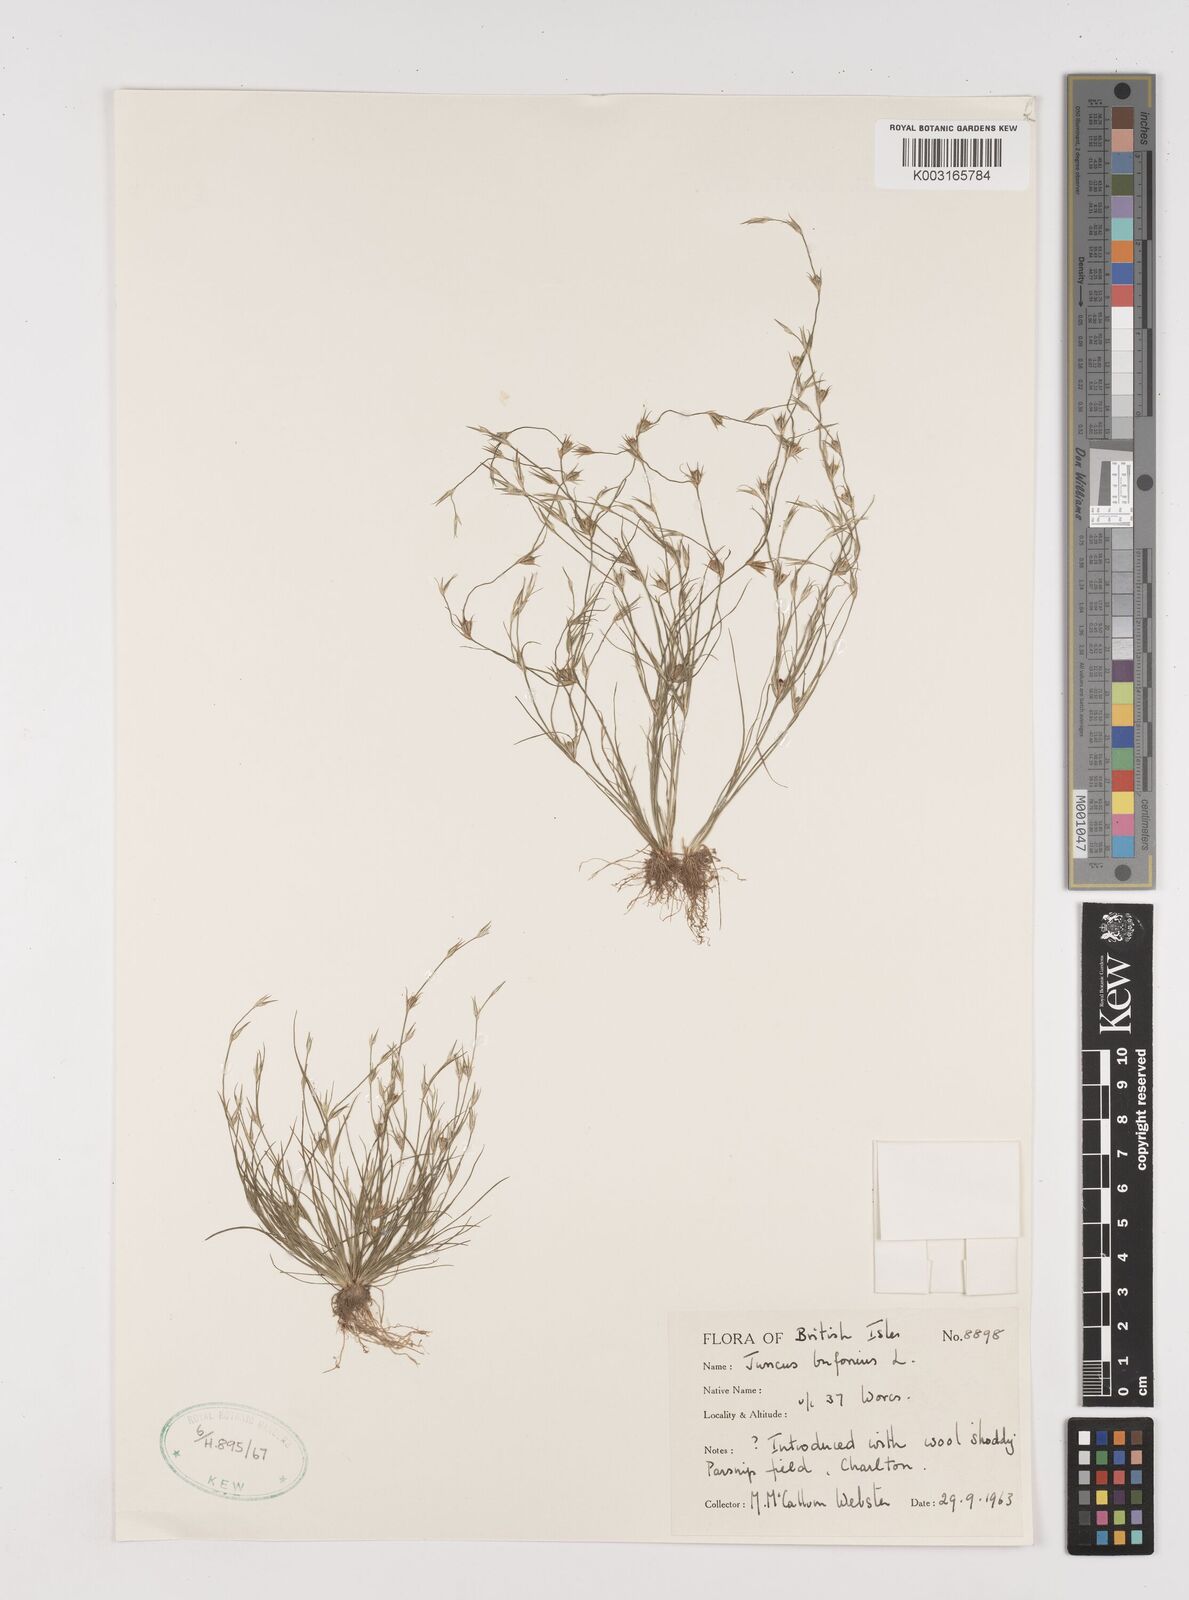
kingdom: Plantae
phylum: Tracheophyta
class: Liliopsida
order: Poales
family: Juncaceae
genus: Juncus
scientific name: Juncus bufonius
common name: Toad rush
